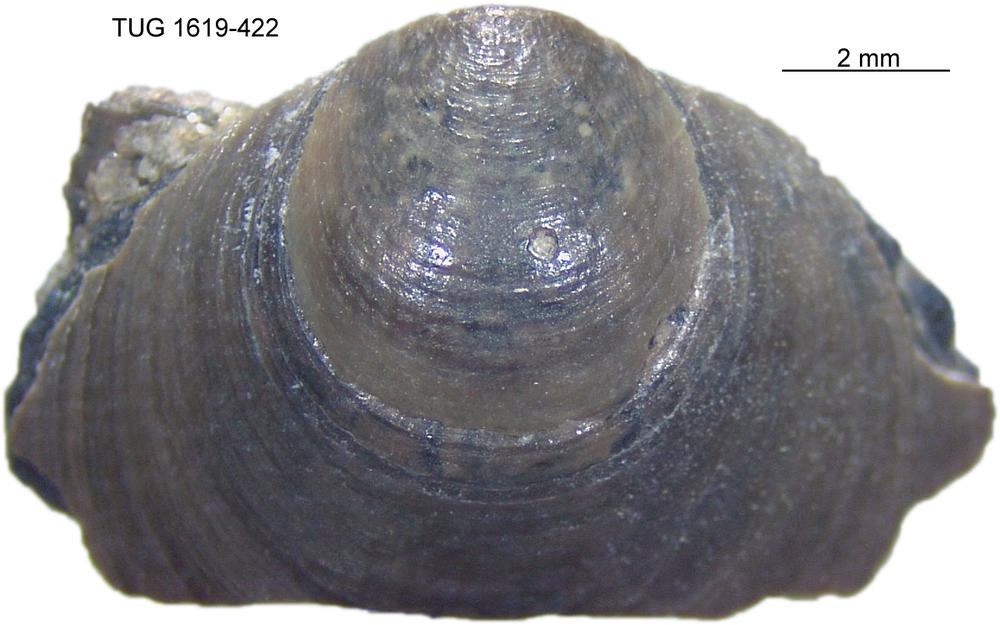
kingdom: Animalia
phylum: Porifera
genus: Ungula
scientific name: Ungula
